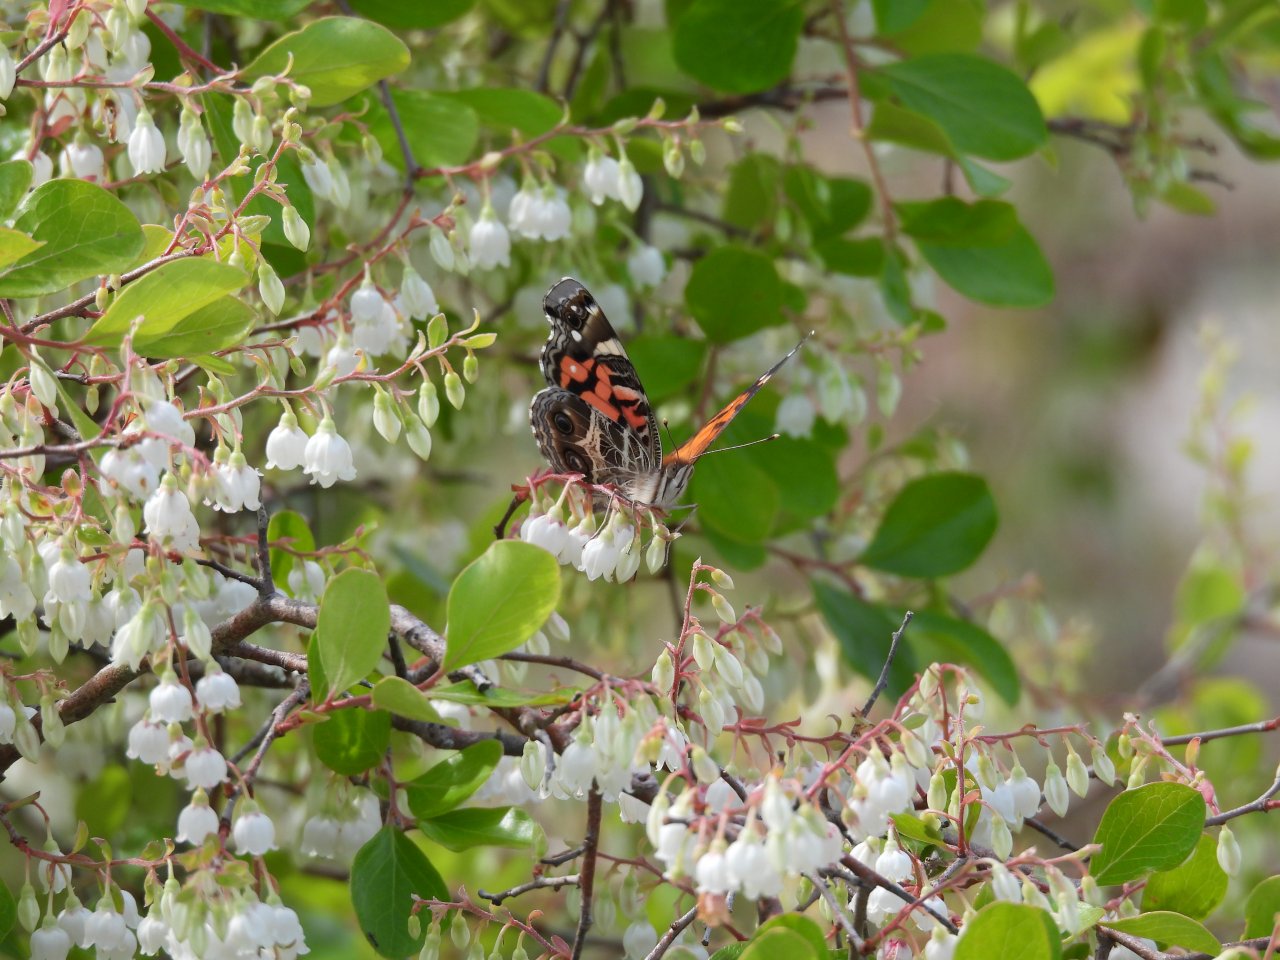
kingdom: Animalia
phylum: Arthropoda
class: Insecta
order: Lepidoptera
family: Nymphalidae
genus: Vanessa
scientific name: Vanessa virginiensis
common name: American Lady
